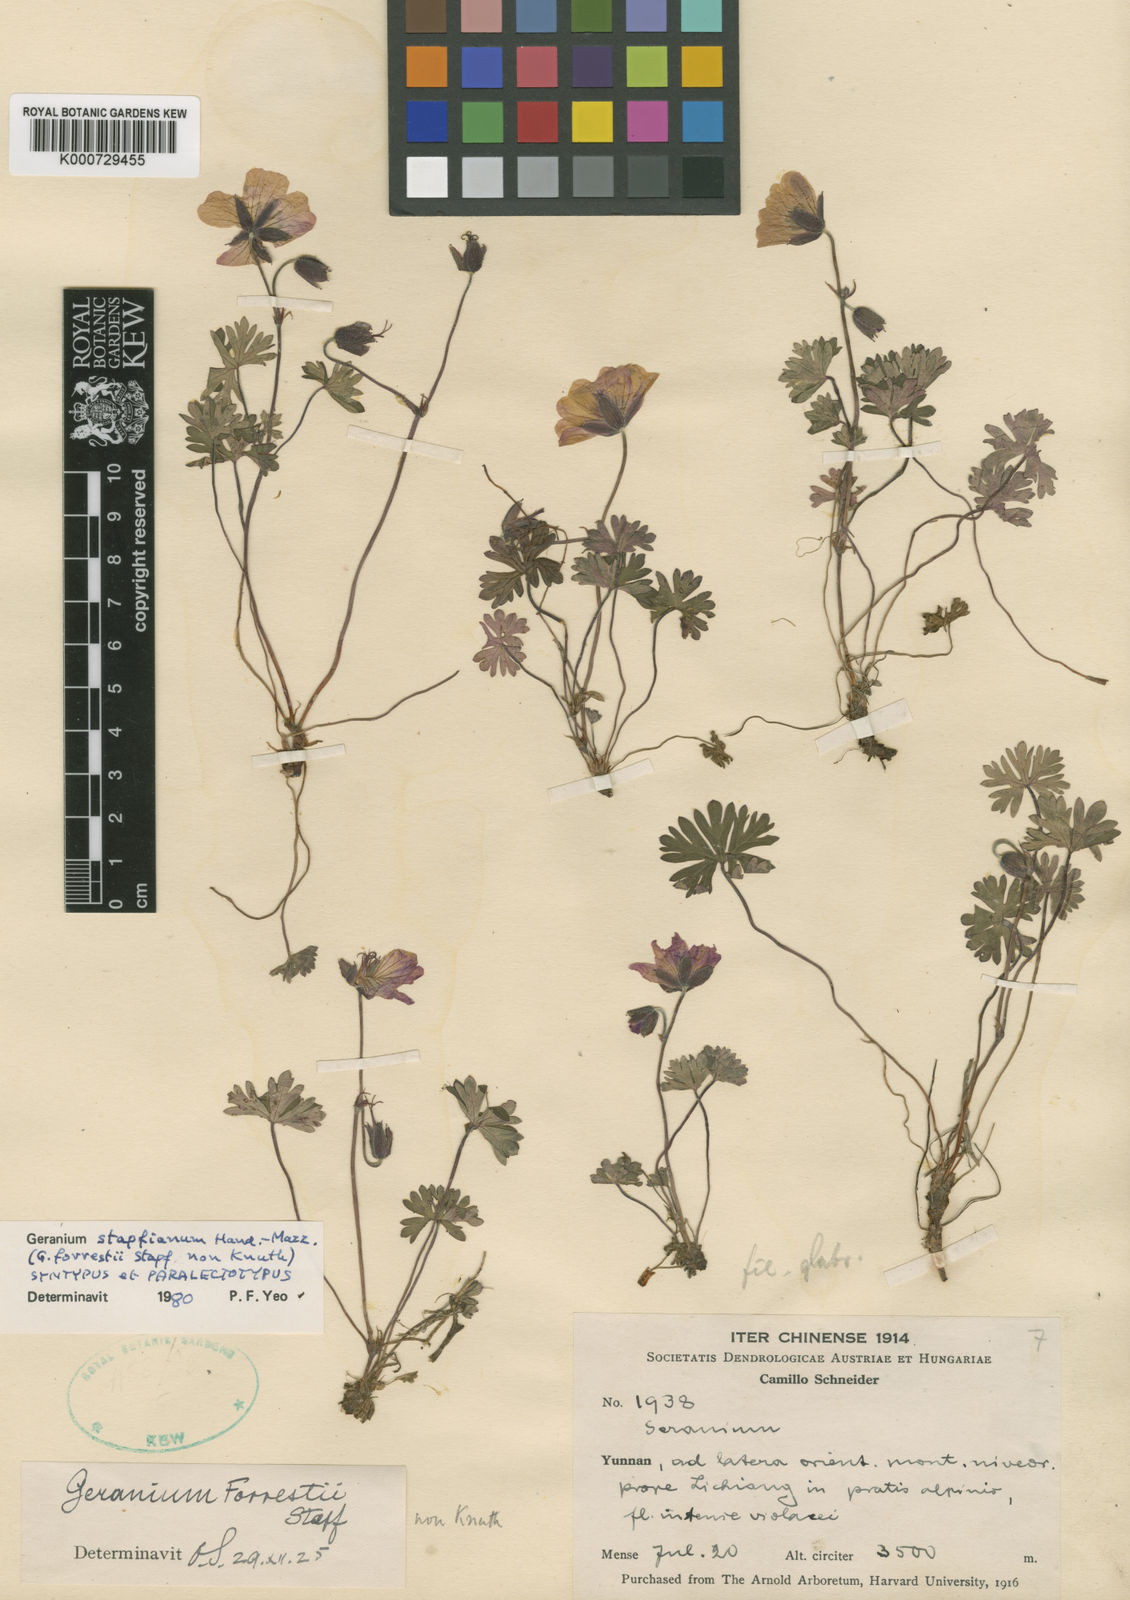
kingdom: Plantae
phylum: Tracheophyta
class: Magnoliopsida
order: Geraniales
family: Geraniaceae
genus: Geranium
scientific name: Geranium donianum
